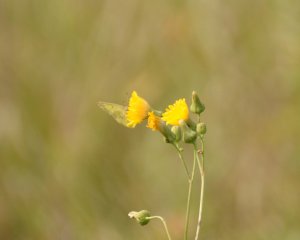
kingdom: Animalia
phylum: Arthropoda
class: Insecta
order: Lepidoptera
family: Pieridae
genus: Colias
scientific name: Colias philodice
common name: Clouded Sulphur
